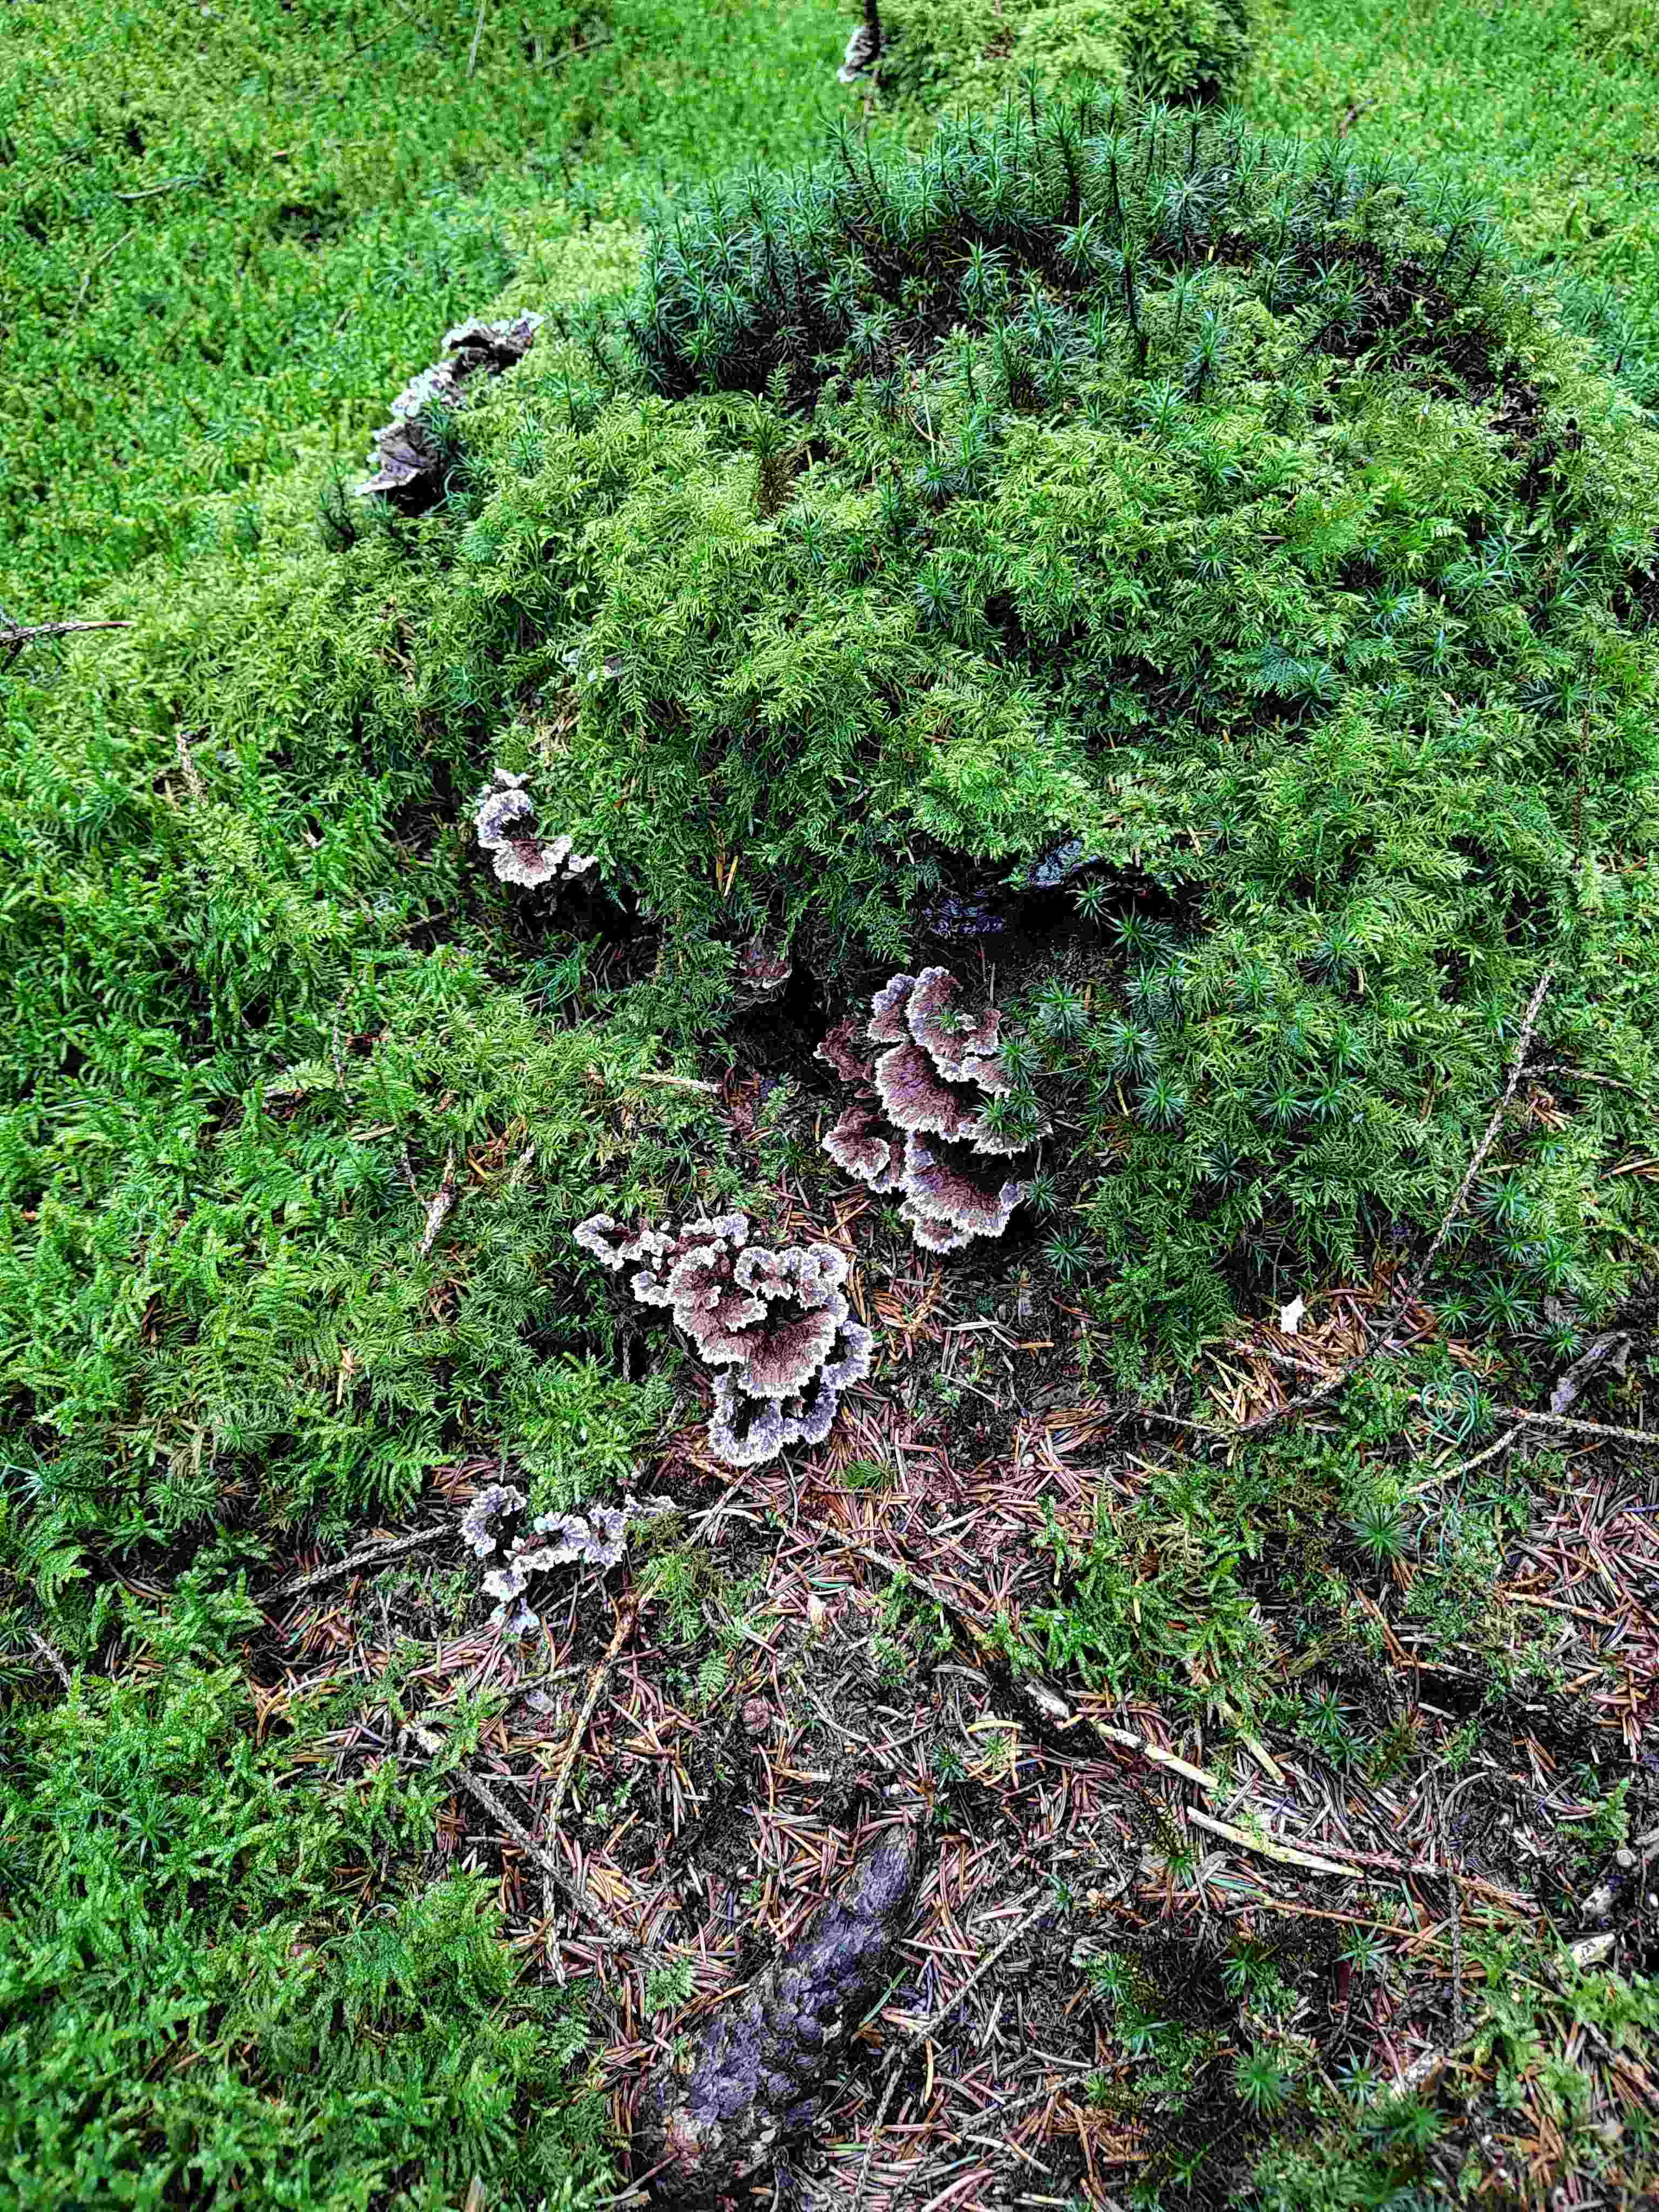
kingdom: Fungi
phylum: Basidiomycota
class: Agaricomycetes
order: Thelephorales
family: Thelephoraceae
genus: Thelephora
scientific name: Thelephora terrestris
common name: fliget frynsesvamp
